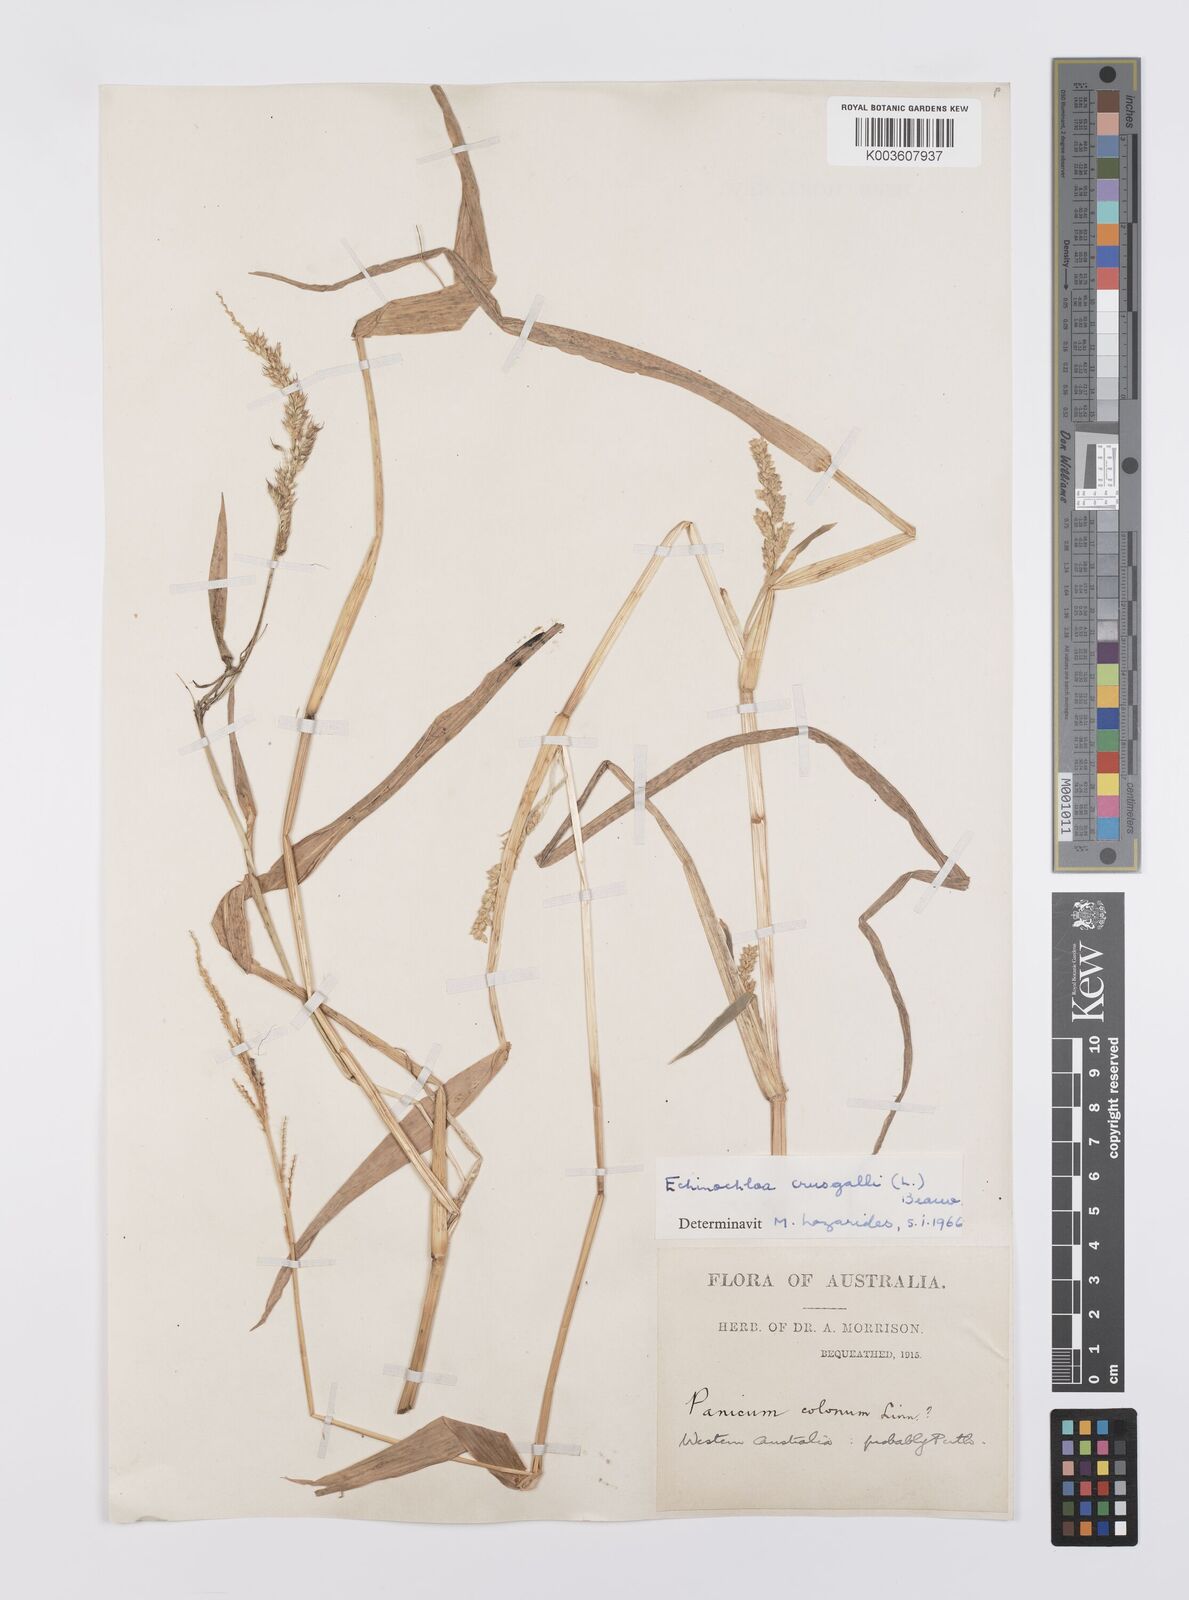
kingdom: Plantae
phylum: Tracheophyta
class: Liliopsida
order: Poales
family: Poaceae
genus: Echinochloa
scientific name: Echinochloa crus-galli
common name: Cockspur
